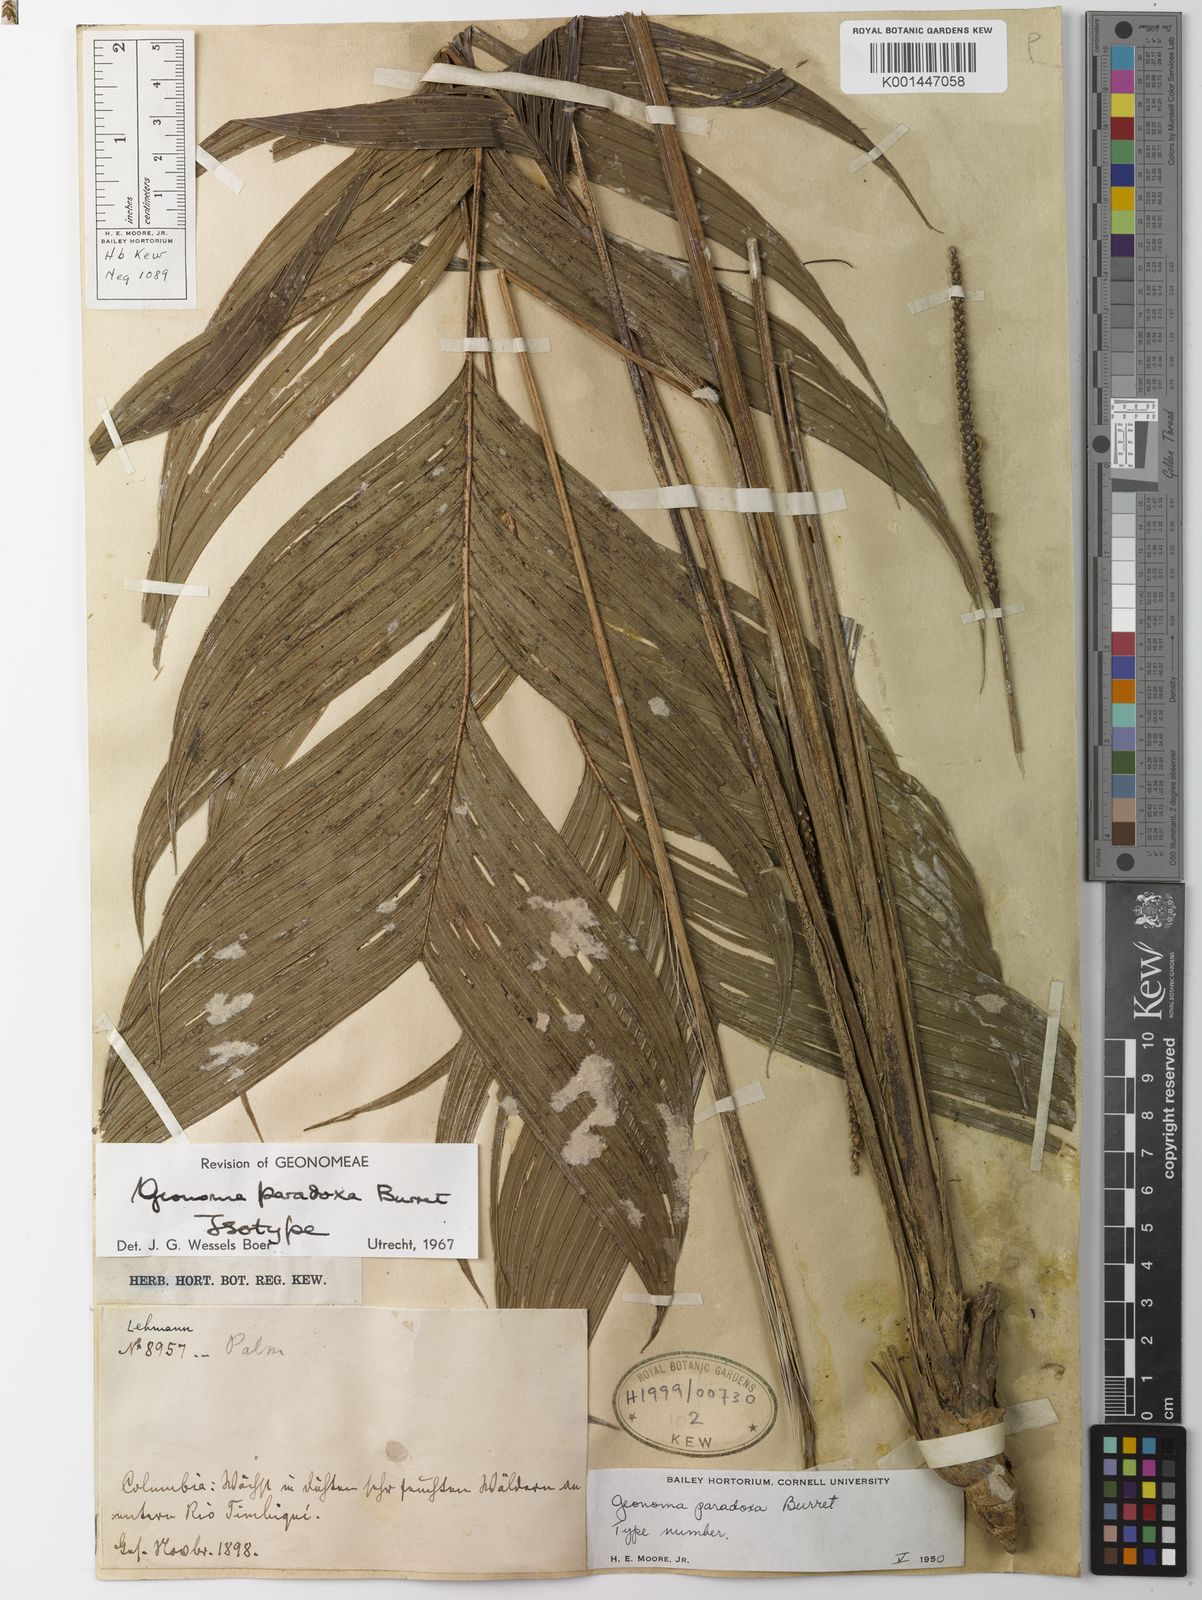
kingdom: Plantae
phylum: Tracheophyta
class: Liliopsida
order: Arecales
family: Arecaceae
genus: Geonoma
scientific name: Geonoma paradoxa
